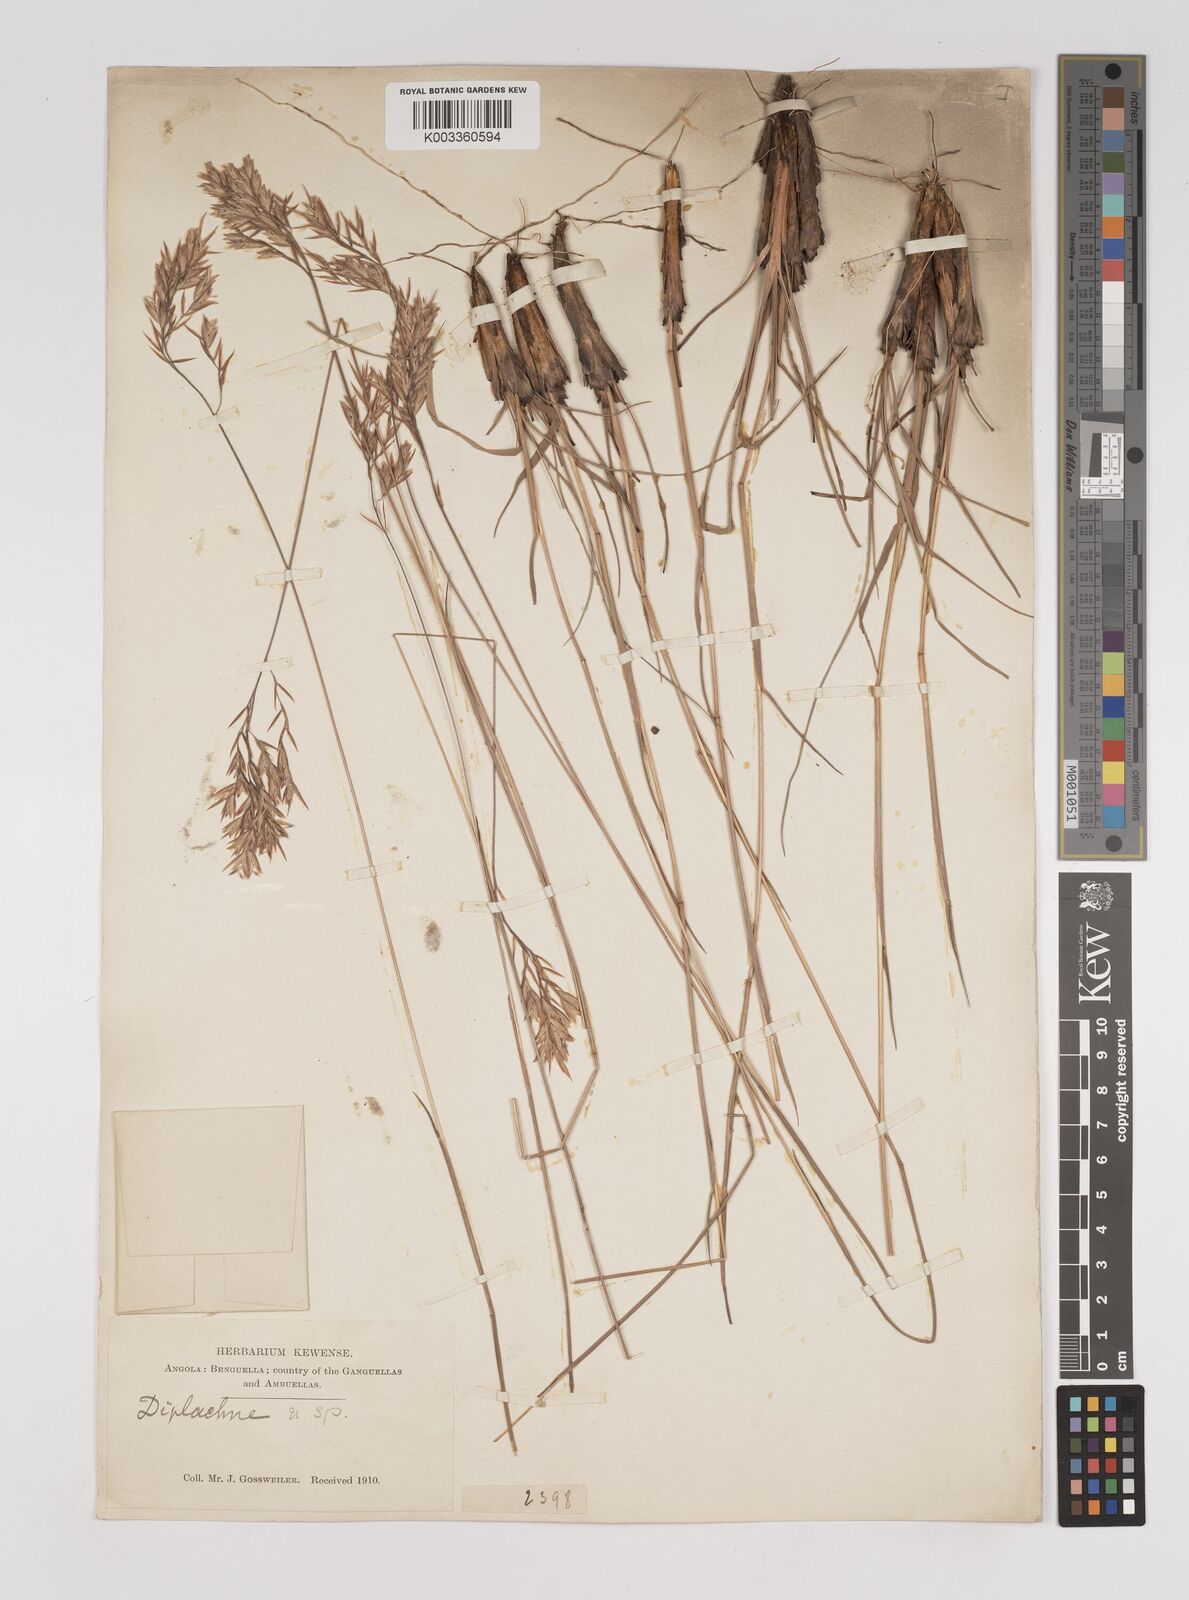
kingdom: Plantae
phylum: Tracheophyta
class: Liliopsida
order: Poales
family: Poaceae
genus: Bewsia
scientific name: Bewsia biflora
